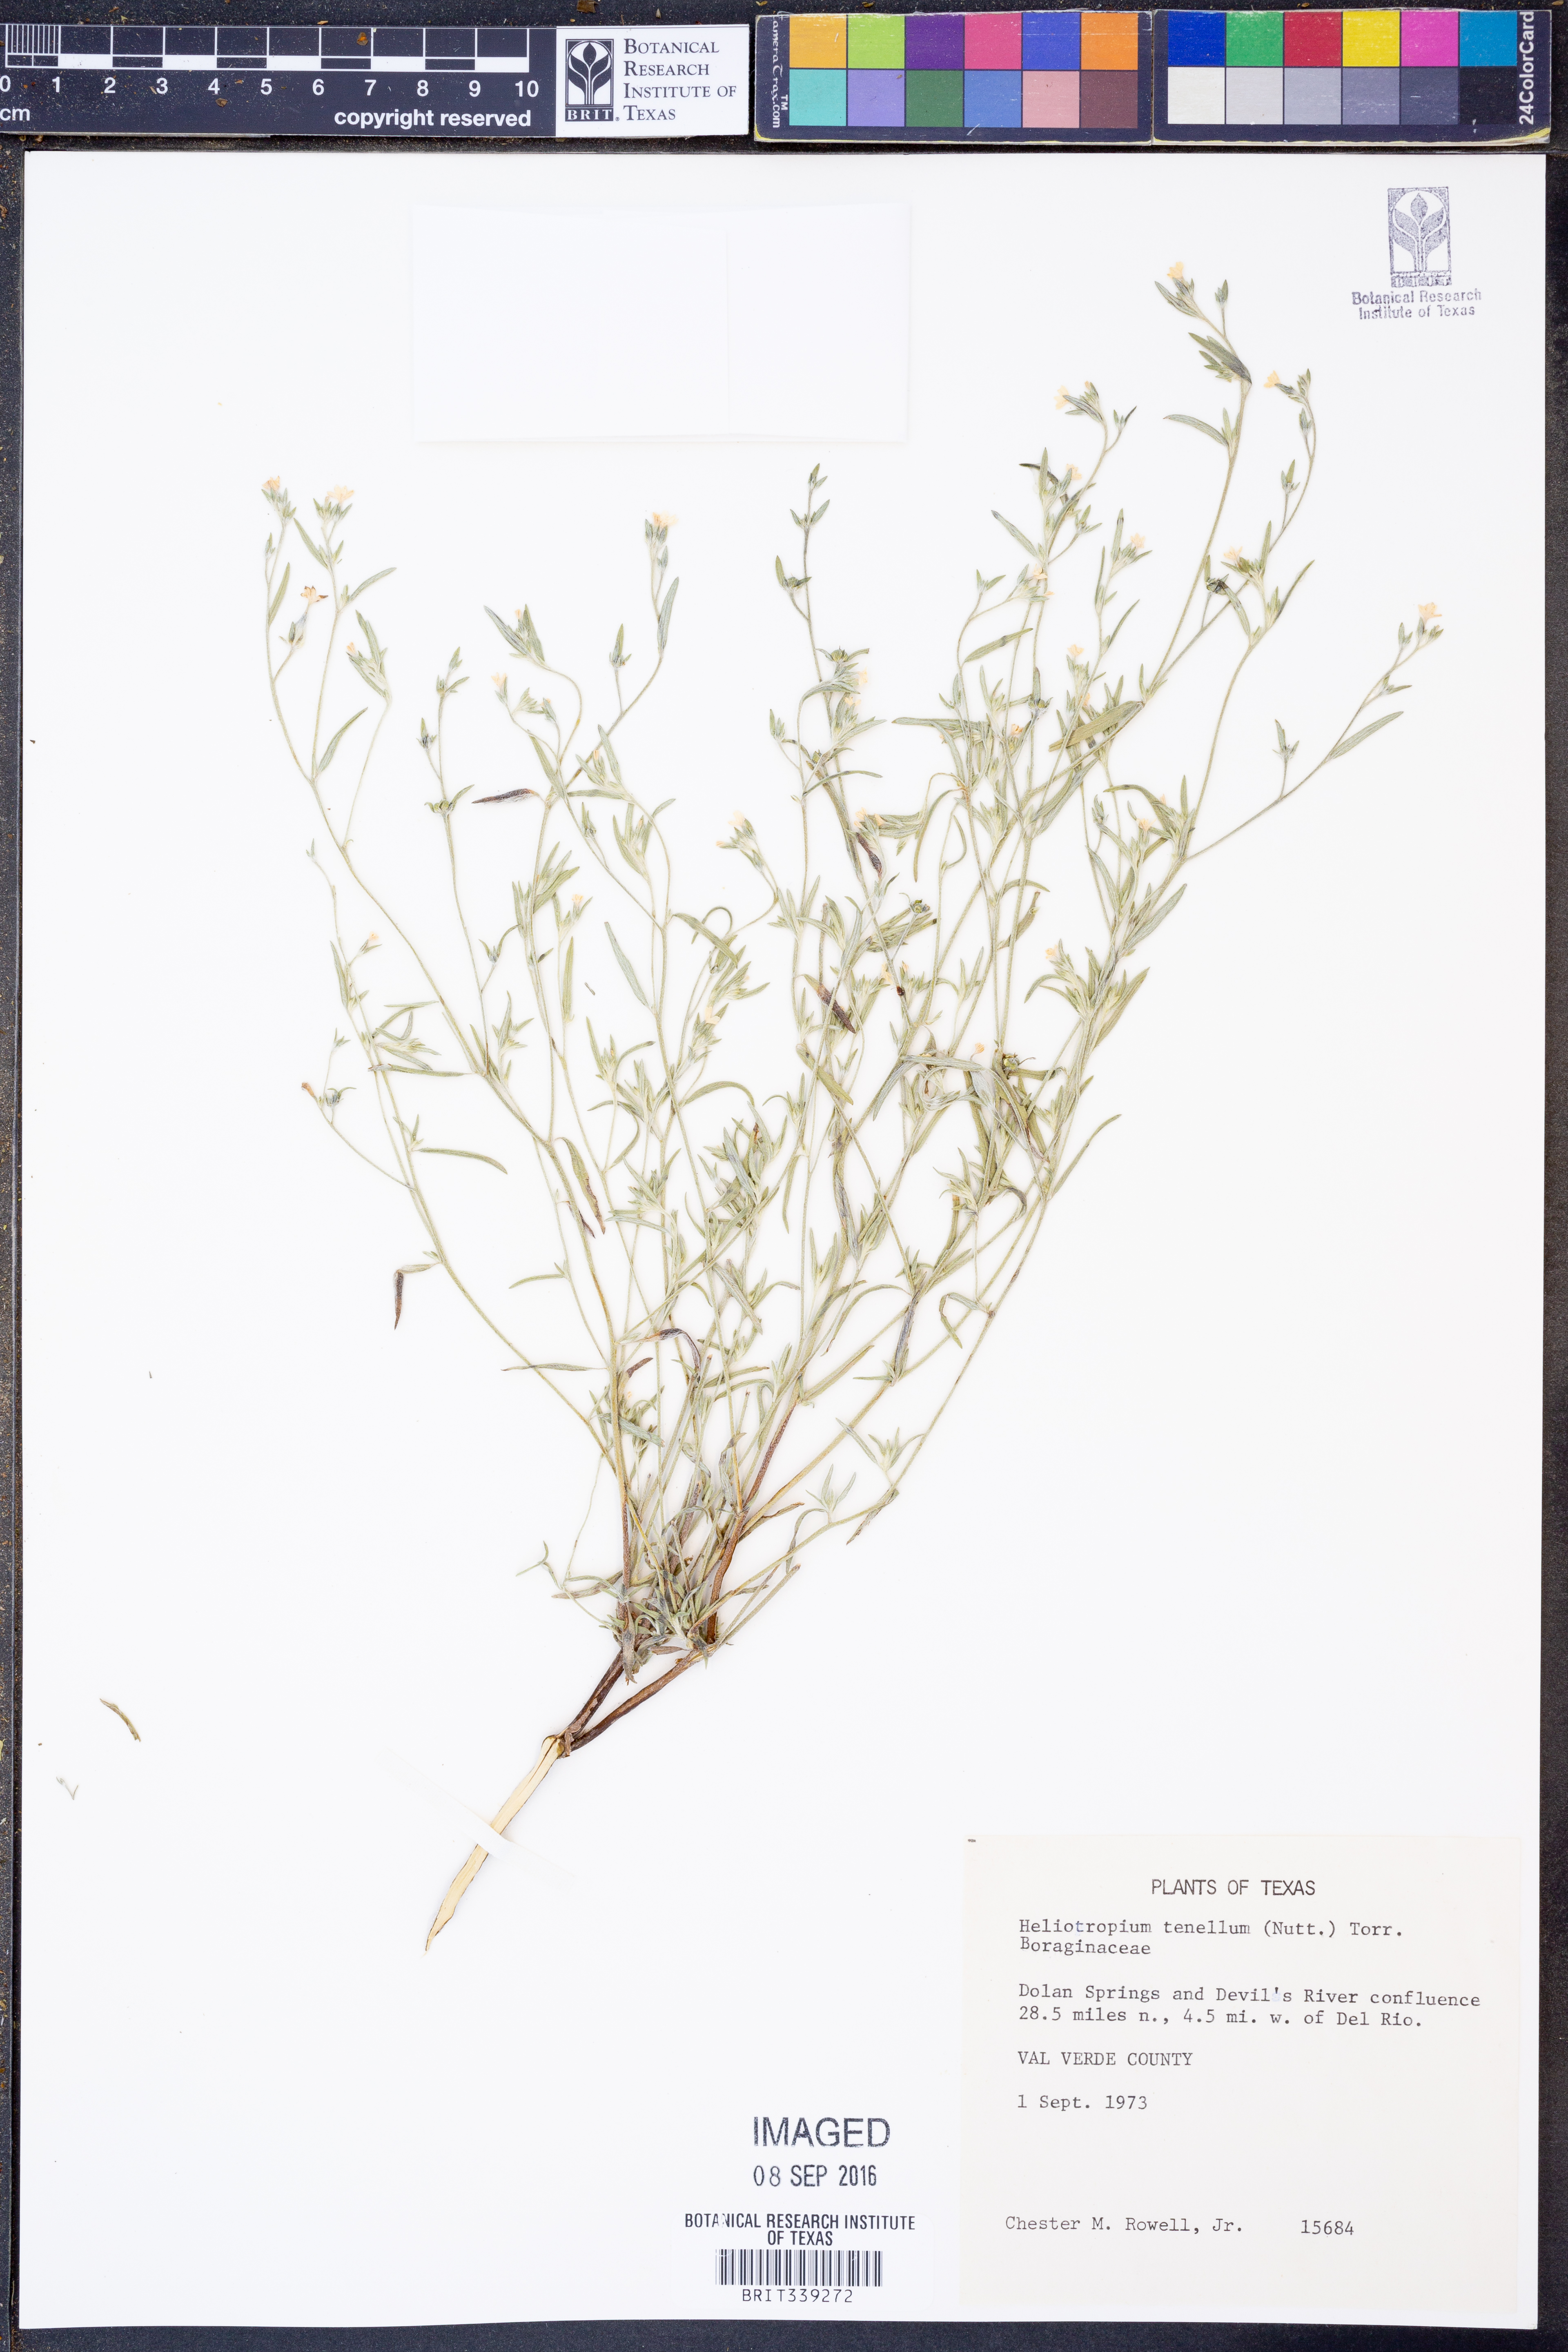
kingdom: Plantae
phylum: Tracheophyta
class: Magnoliopsida
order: Boraginales
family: Heliotropiaceae
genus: Euploca
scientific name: Euploca tenella
